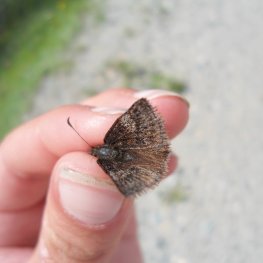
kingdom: Animalia
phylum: Arthropoda
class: Insecta
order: Lepidoptera
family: Hesperiidae
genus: Erynnis
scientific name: Erynnis icelus
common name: Dreamy Duskywing
